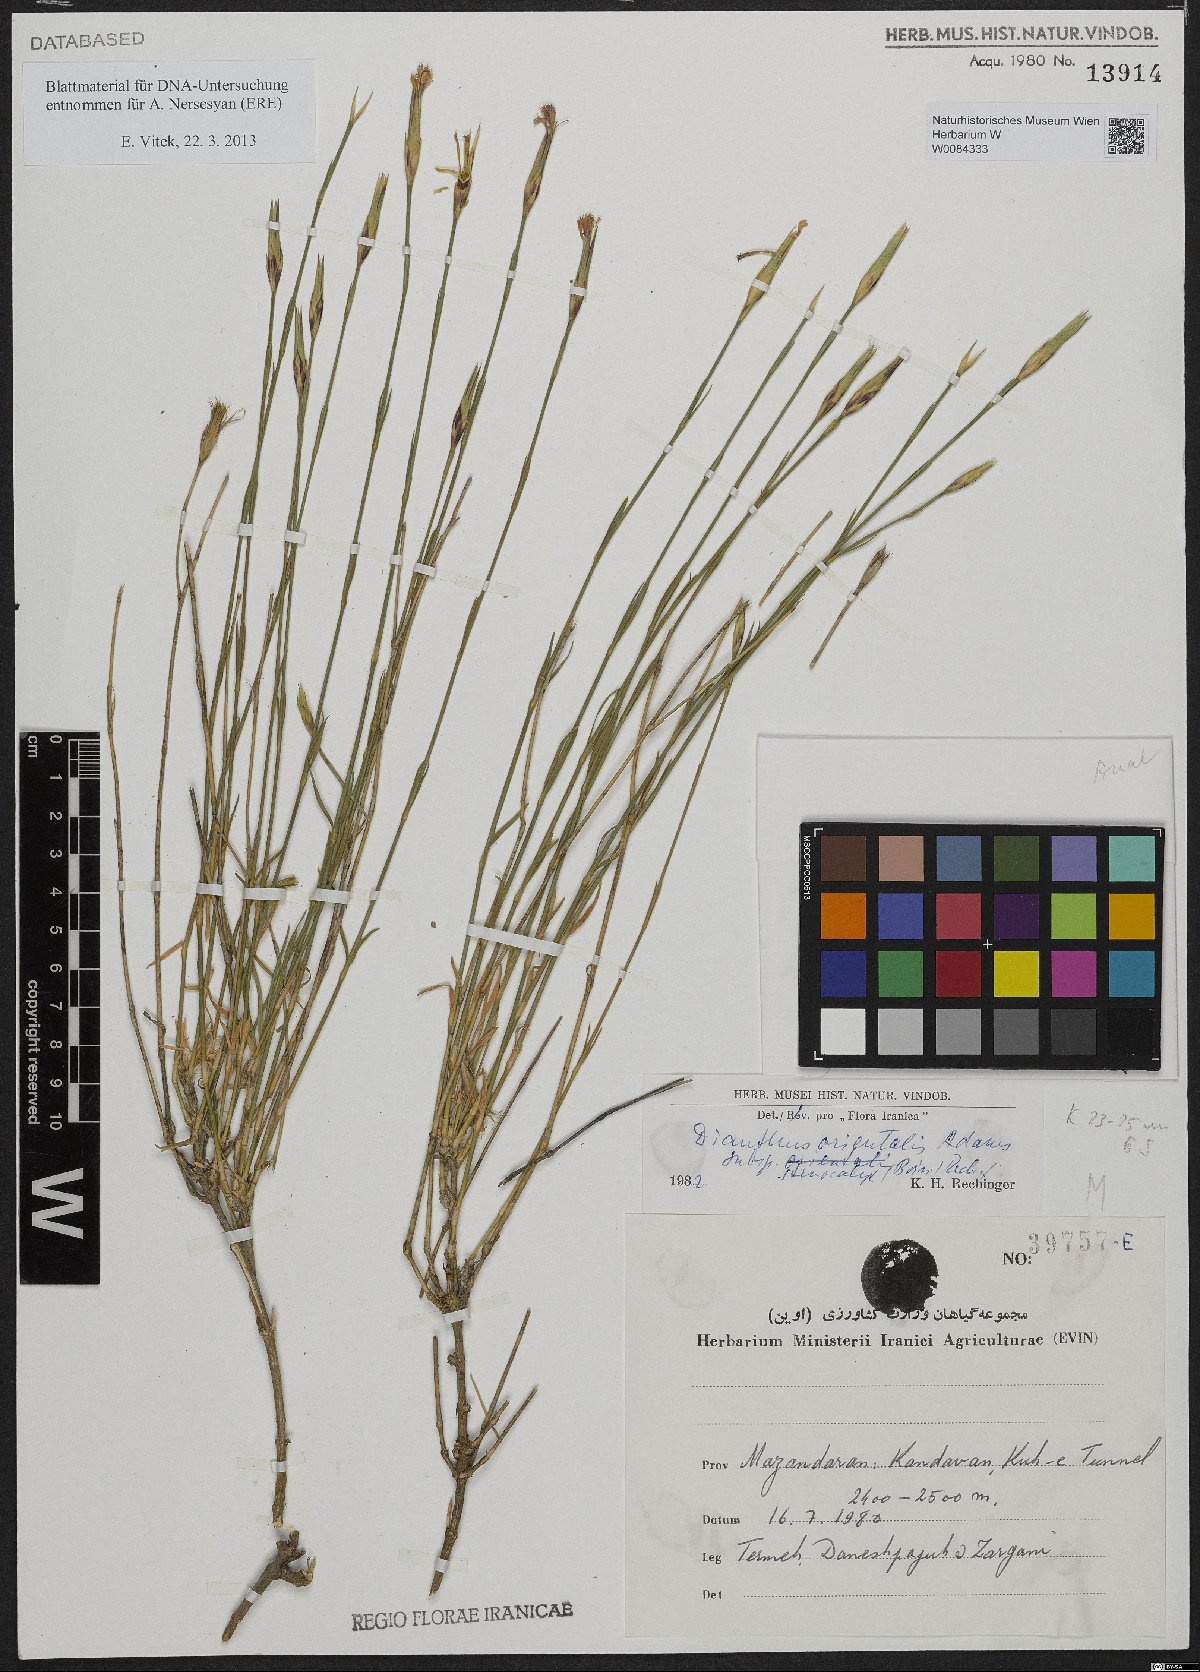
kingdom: Plantae
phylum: Tracheophyta
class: Magnoliopsida
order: Caryophyllales
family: Caryophyllaceae
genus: Dianthus
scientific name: Dianthus orientalis
